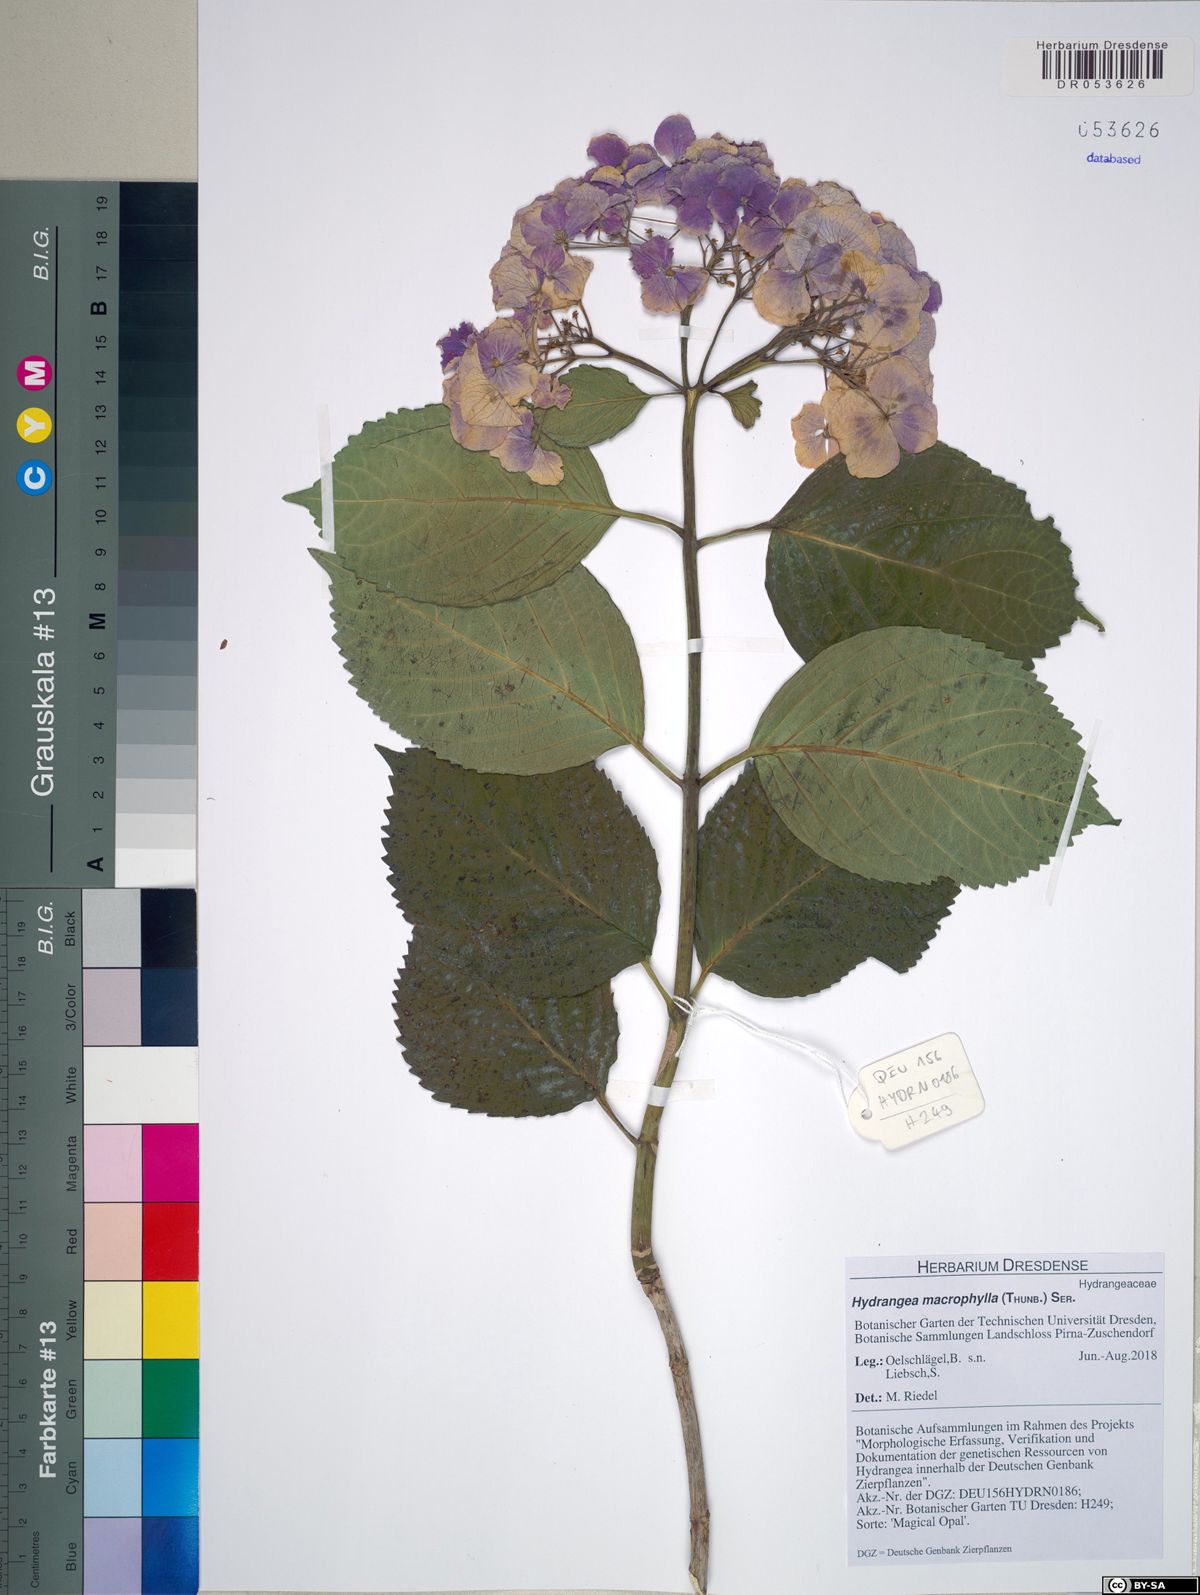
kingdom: Plantae
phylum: Tracheophyta
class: Magnoliopsida
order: Cornales
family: Hydrangeaceae
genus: Hydrangea
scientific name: Hydrangea macrophylla
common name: Hydrangea
